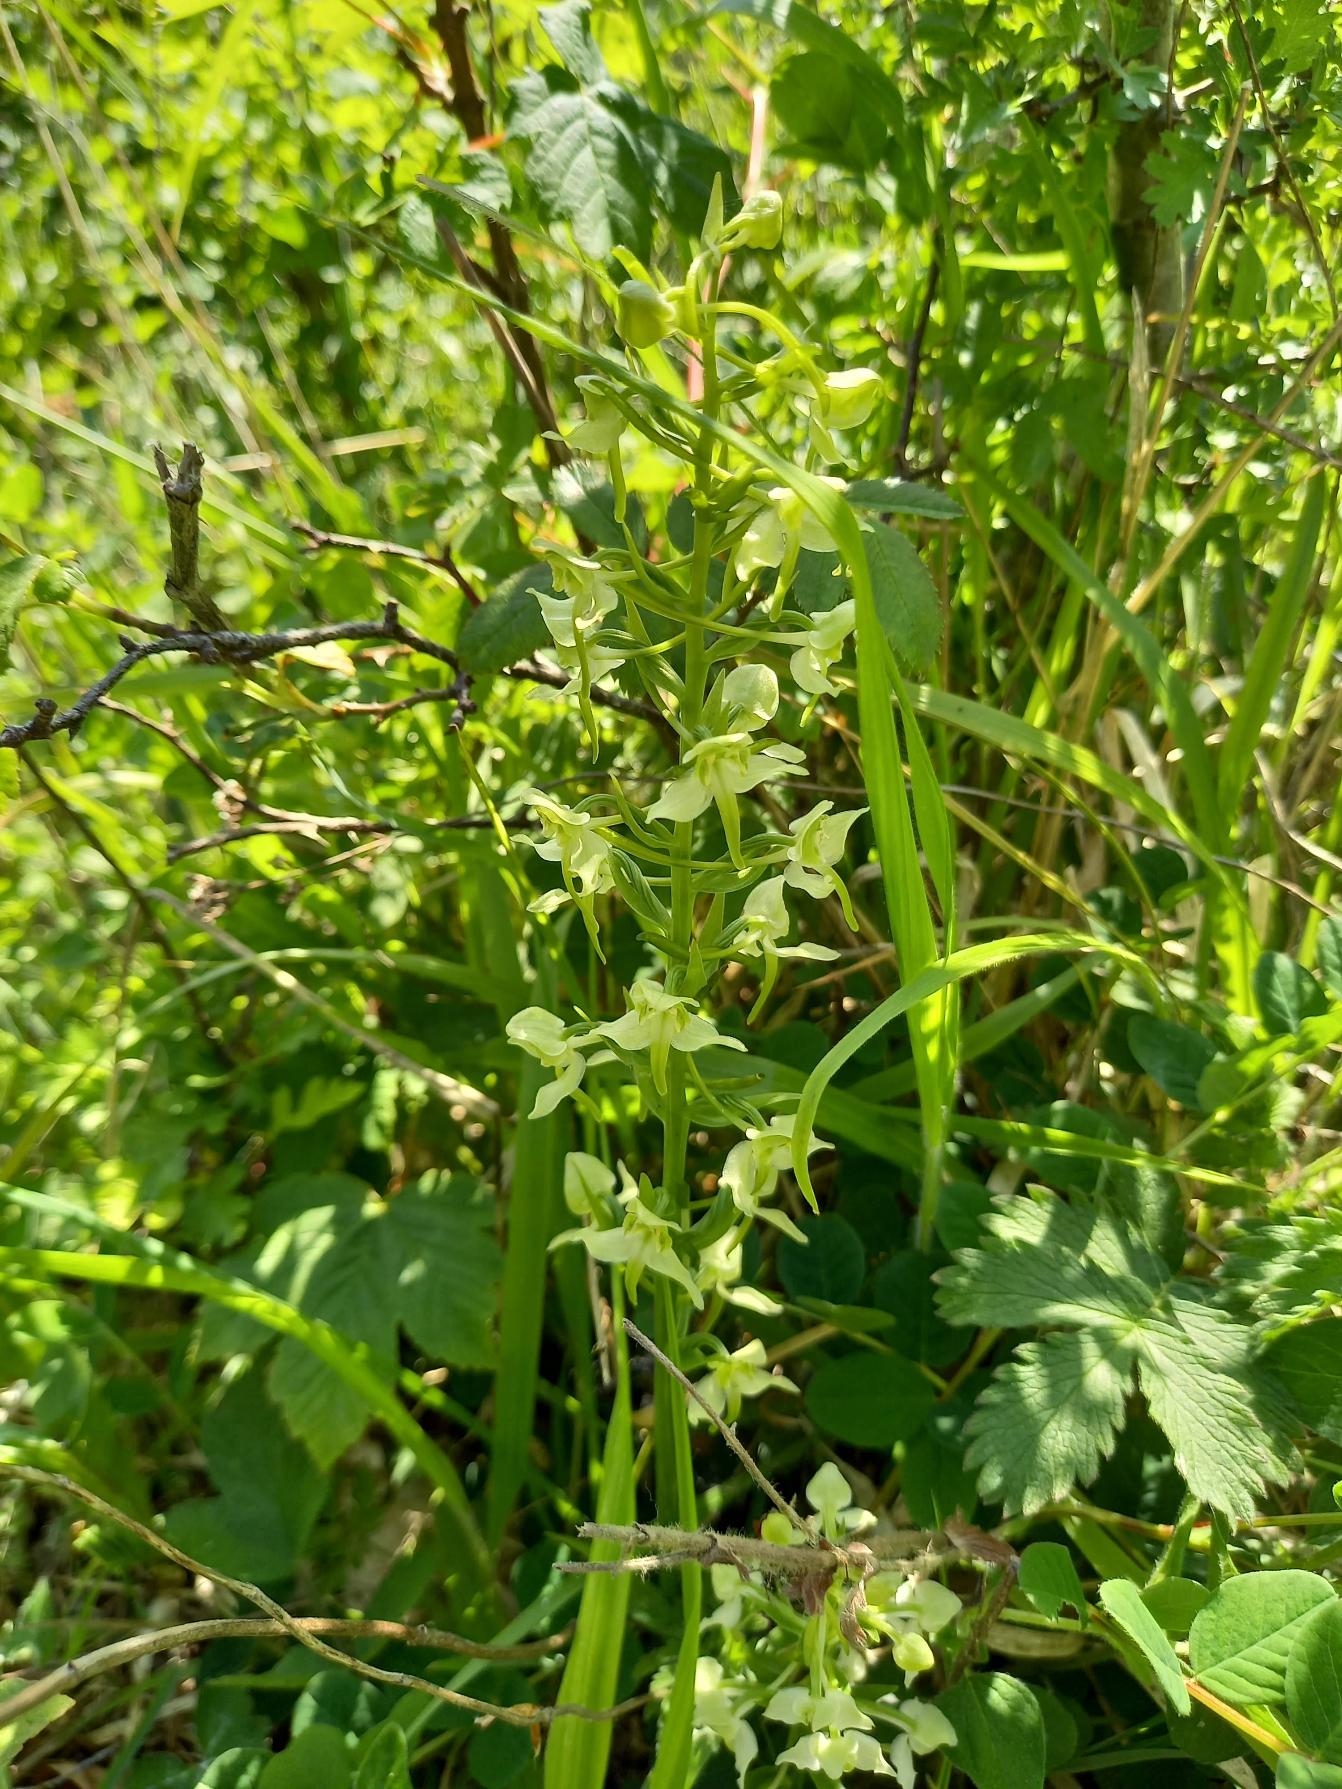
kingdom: Plantae
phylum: Tracheophyta
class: Liliopsida
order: Asparagales
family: Orchidaceae
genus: Platanthera
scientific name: Platanthera chlorantha
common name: Skov-gøgelilje
